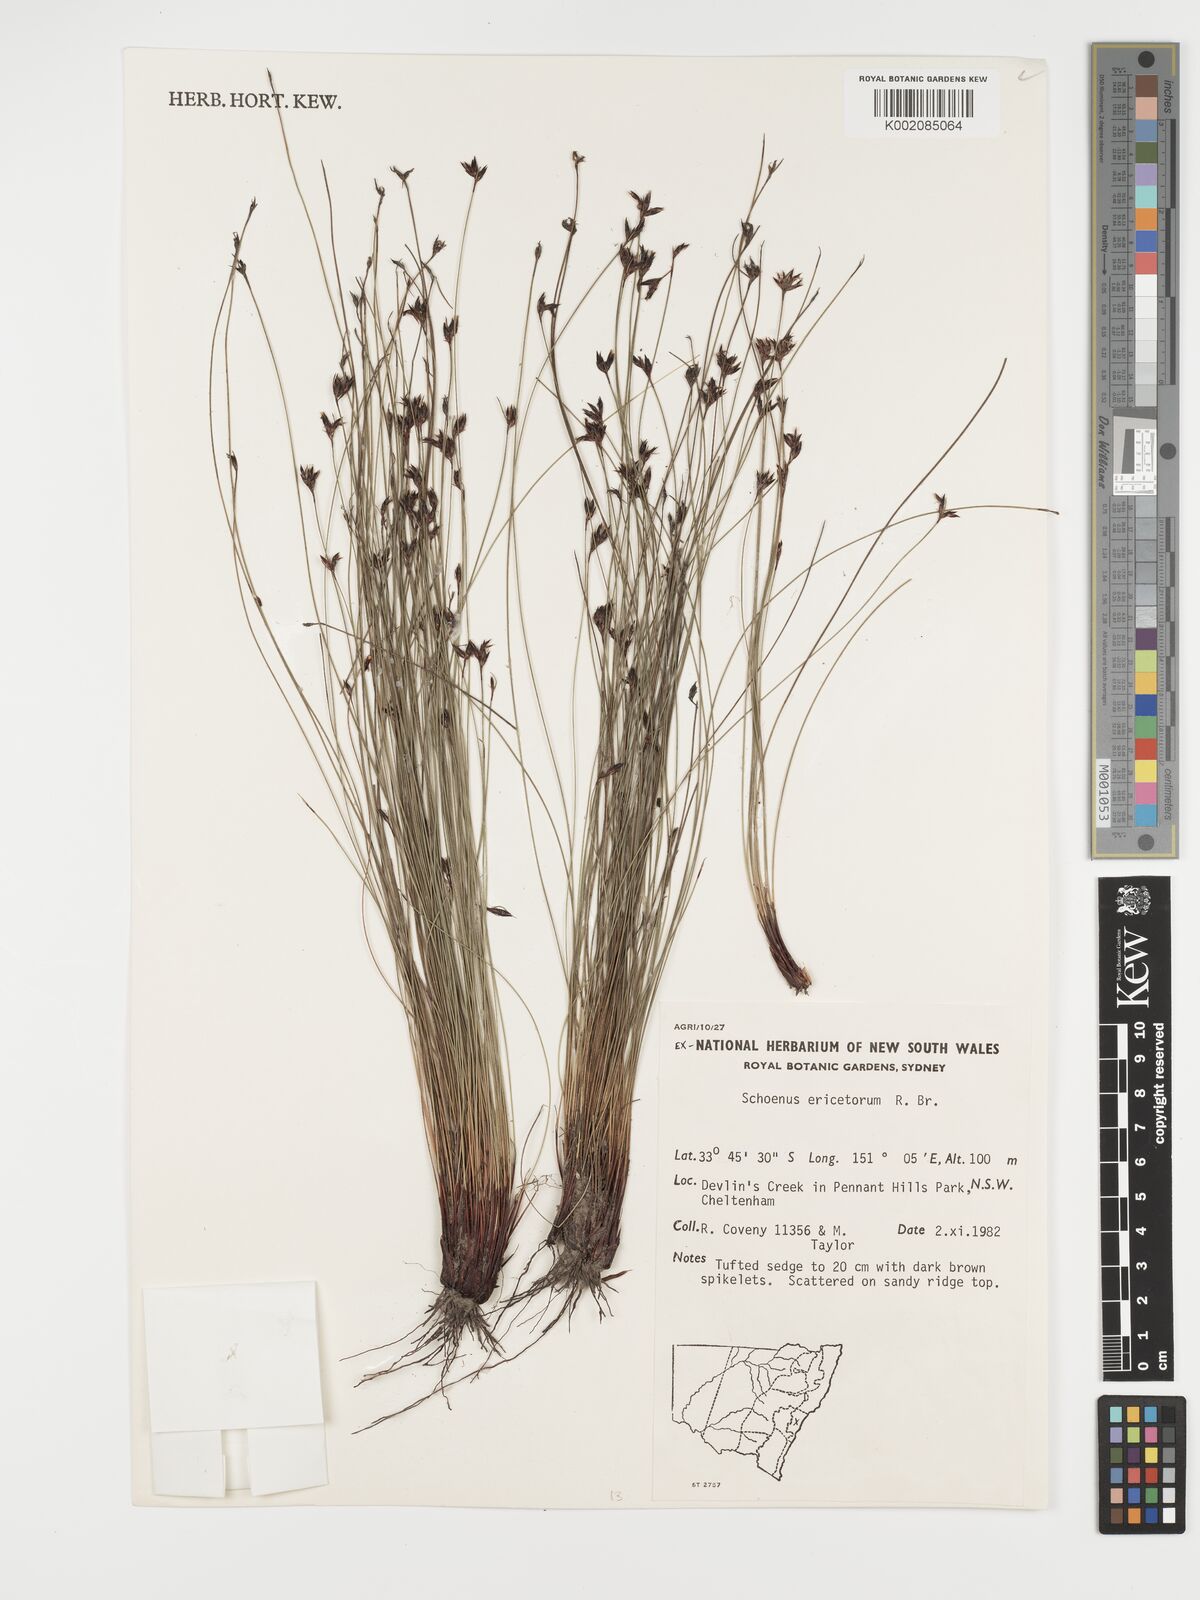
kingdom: Plantae
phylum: Tracheophyta
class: Liliopsida
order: Poales
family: Cyperaceae
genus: Schoenus
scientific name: Schoenus ericetorum
